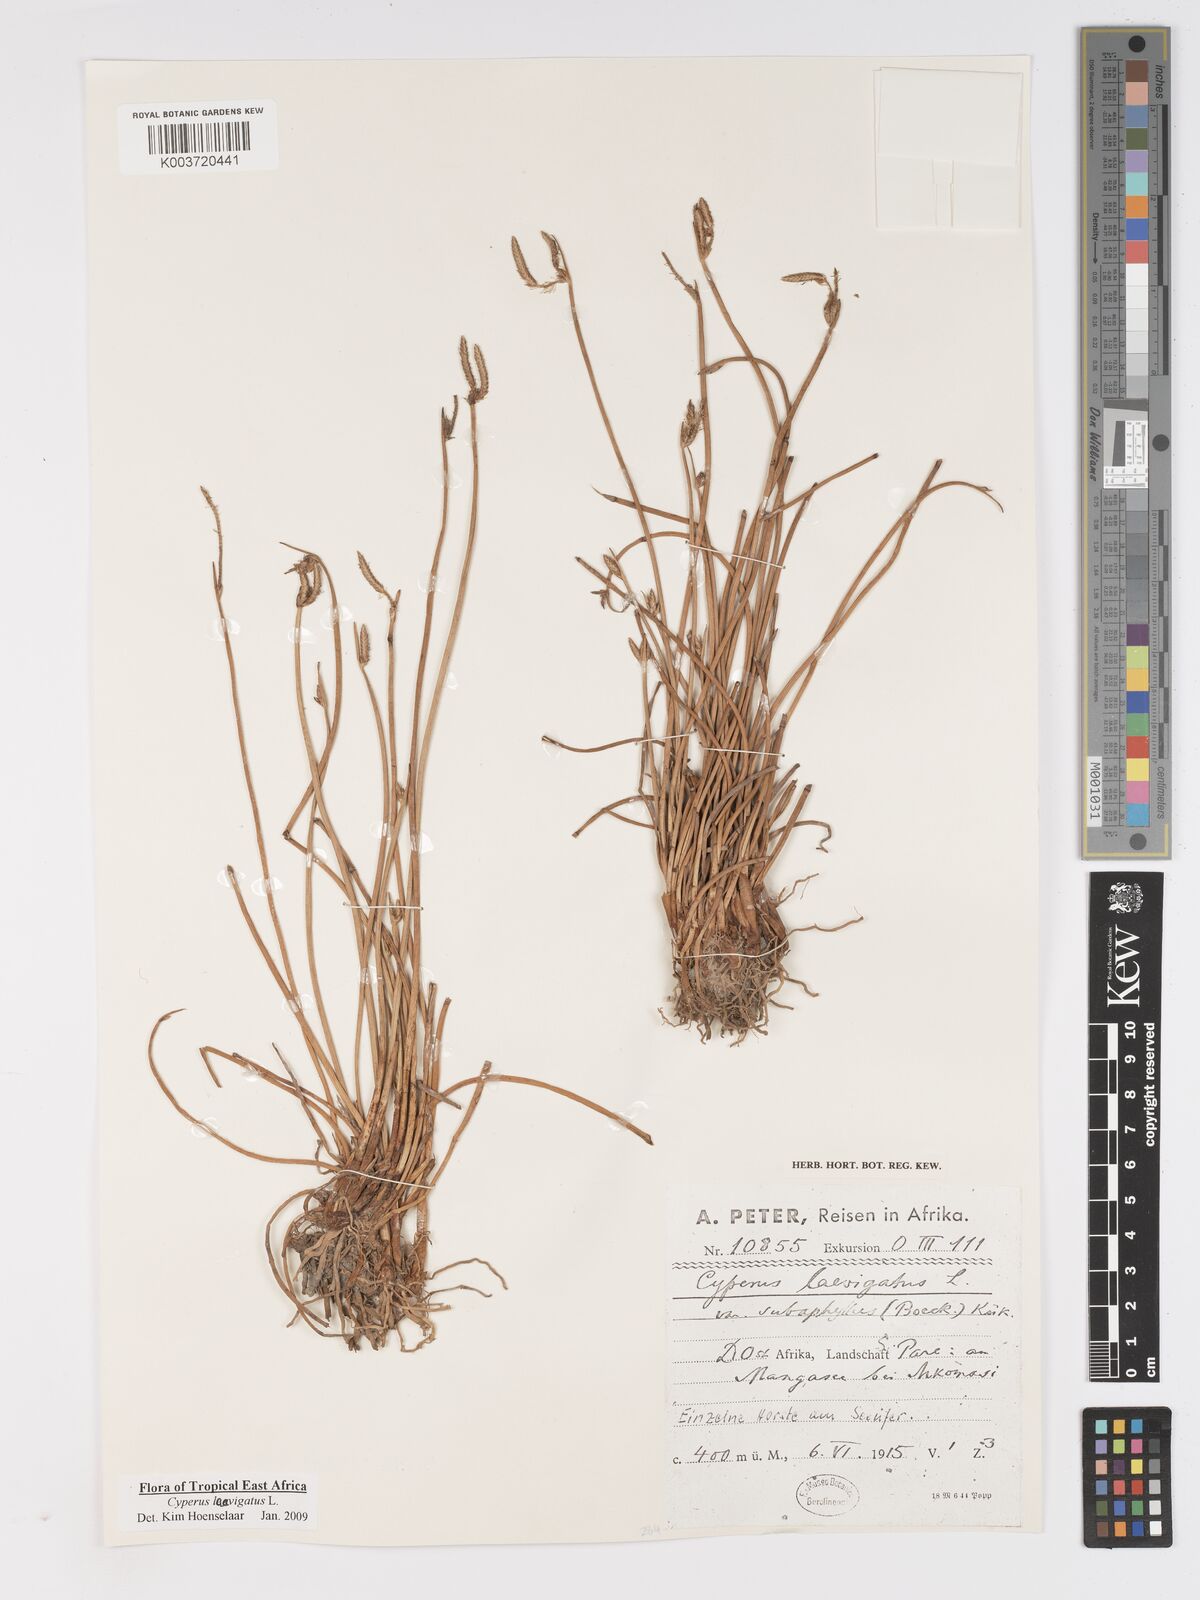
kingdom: Plantae
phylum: Tracheophyta
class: Liliopsida
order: Poales
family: Cyperaceae
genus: Cyperus
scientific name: Cyperus laevigatus
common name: Smooth flat sedge
